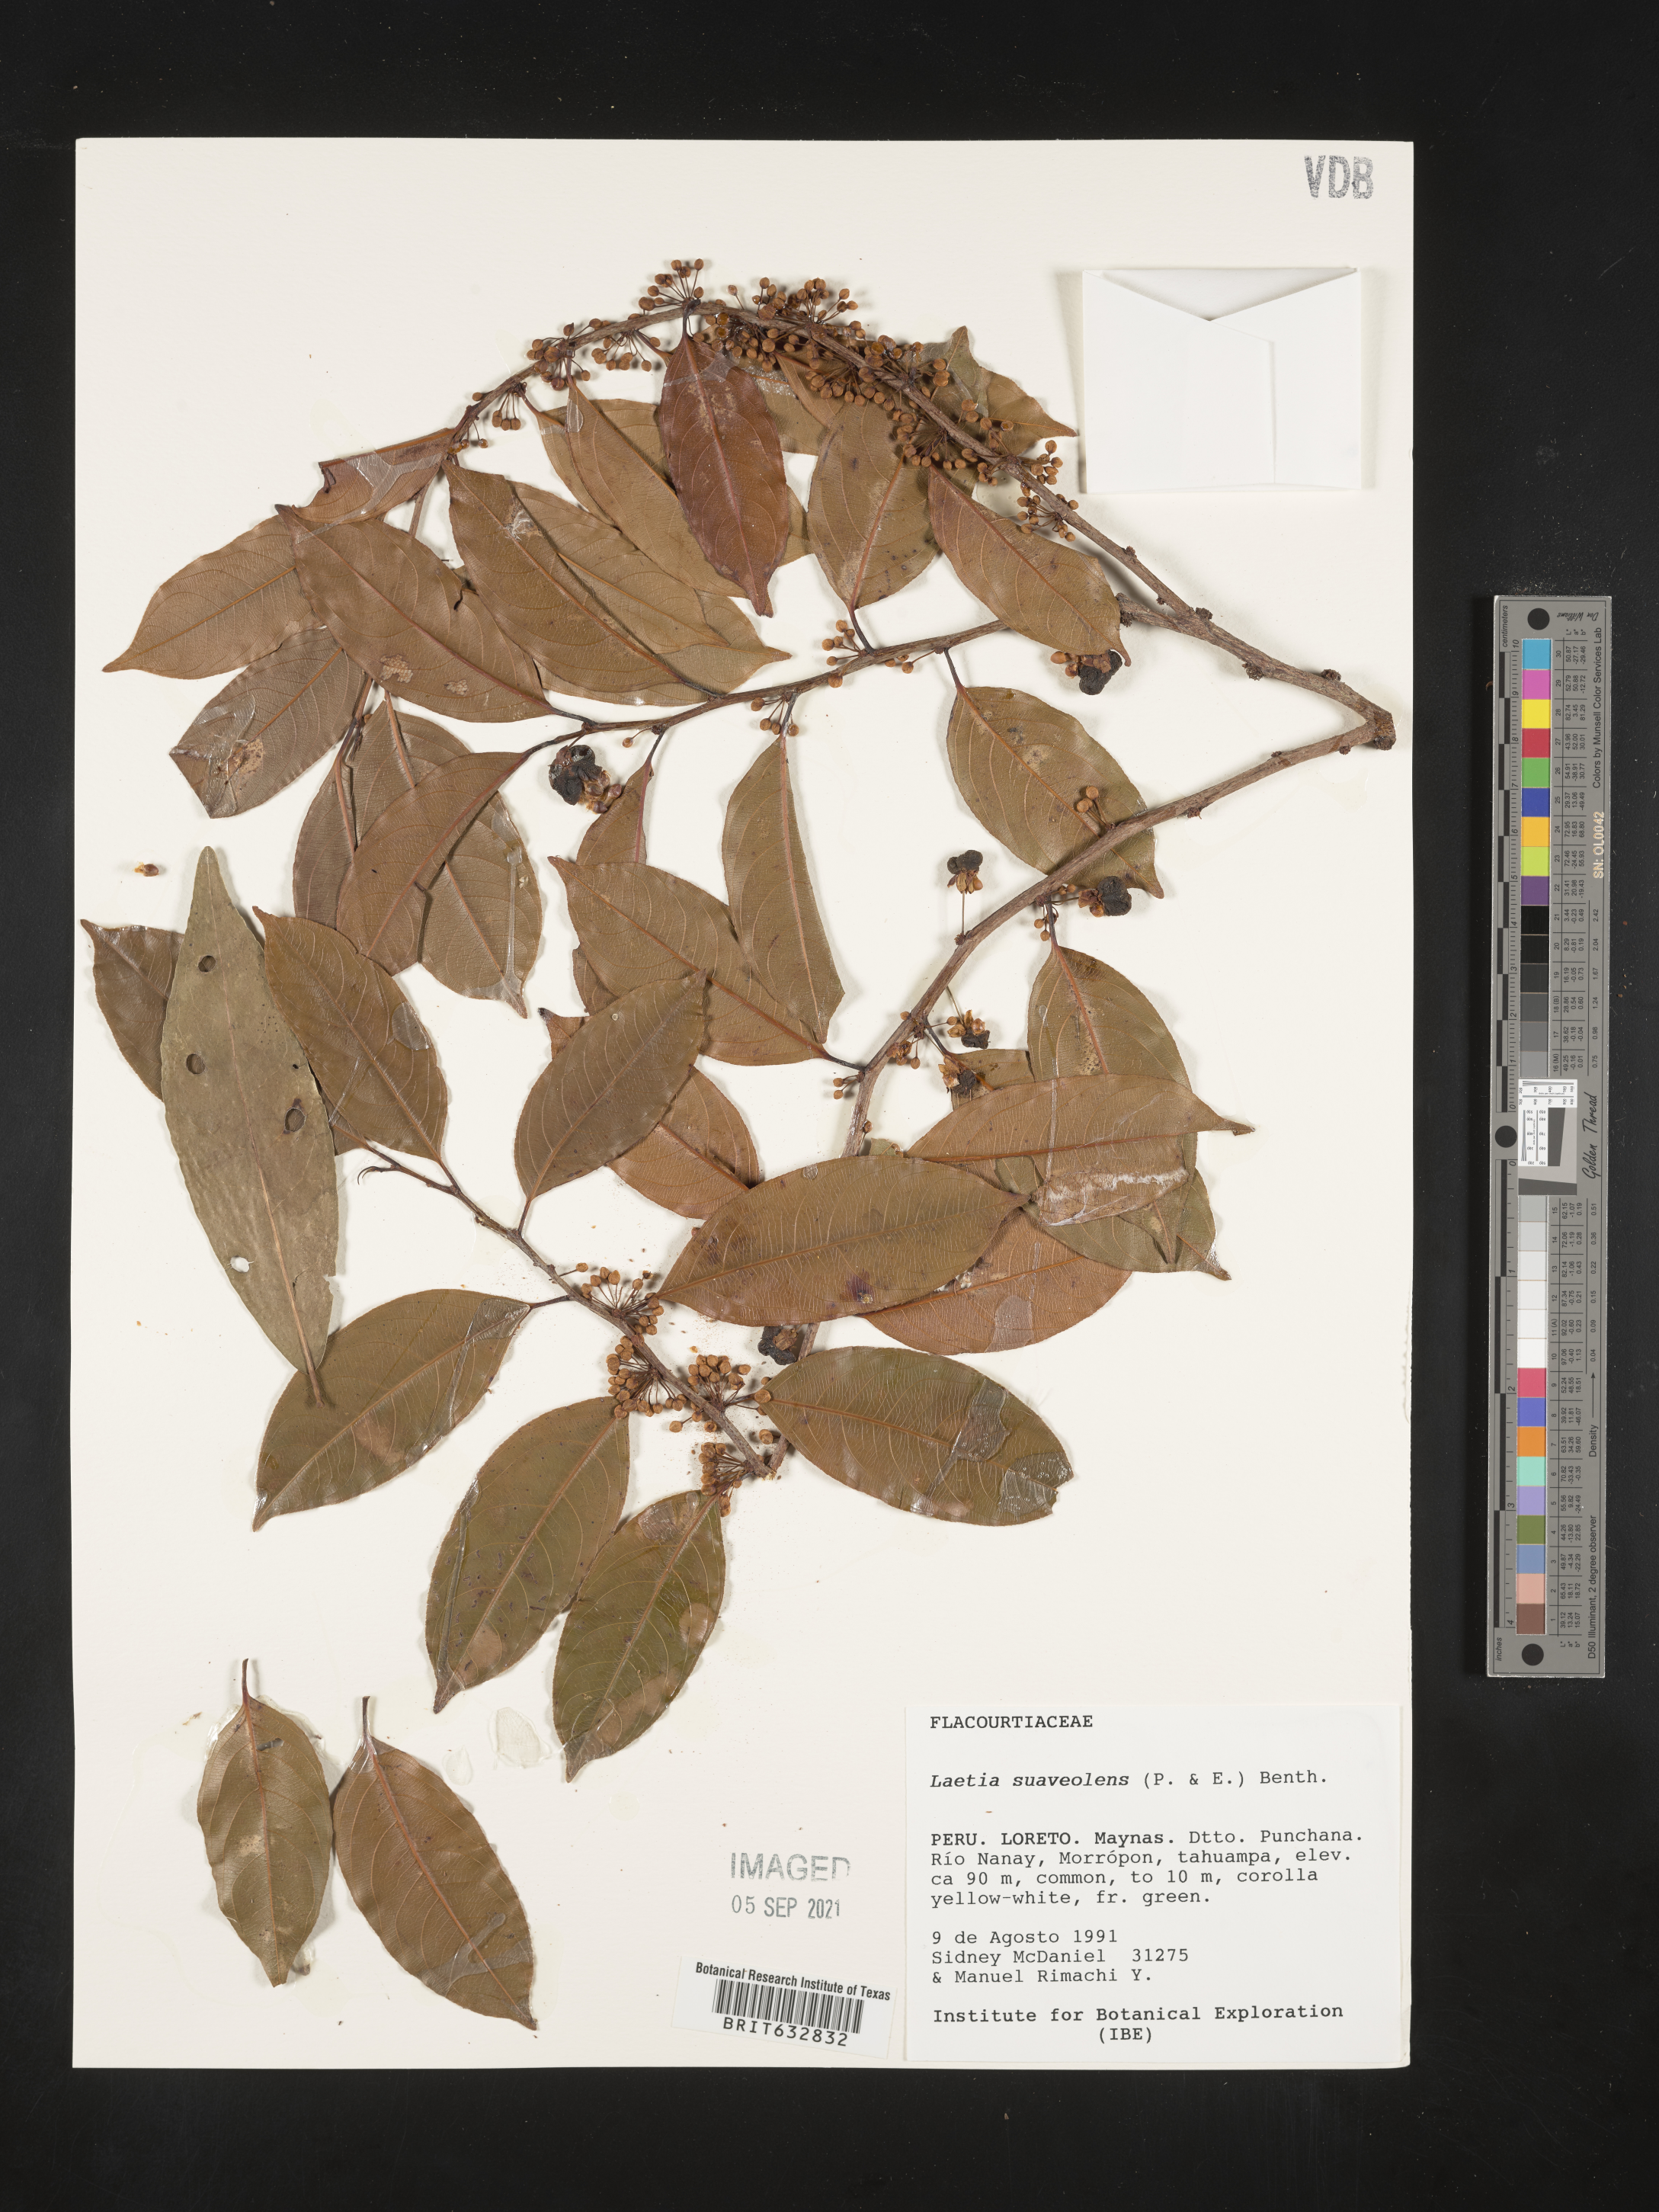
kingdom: Plantae
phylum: Tracheophyta
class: Magnoliopsida
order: Malpighiales
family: Flacourtiaceae
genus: Laetia
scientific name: Laetia
